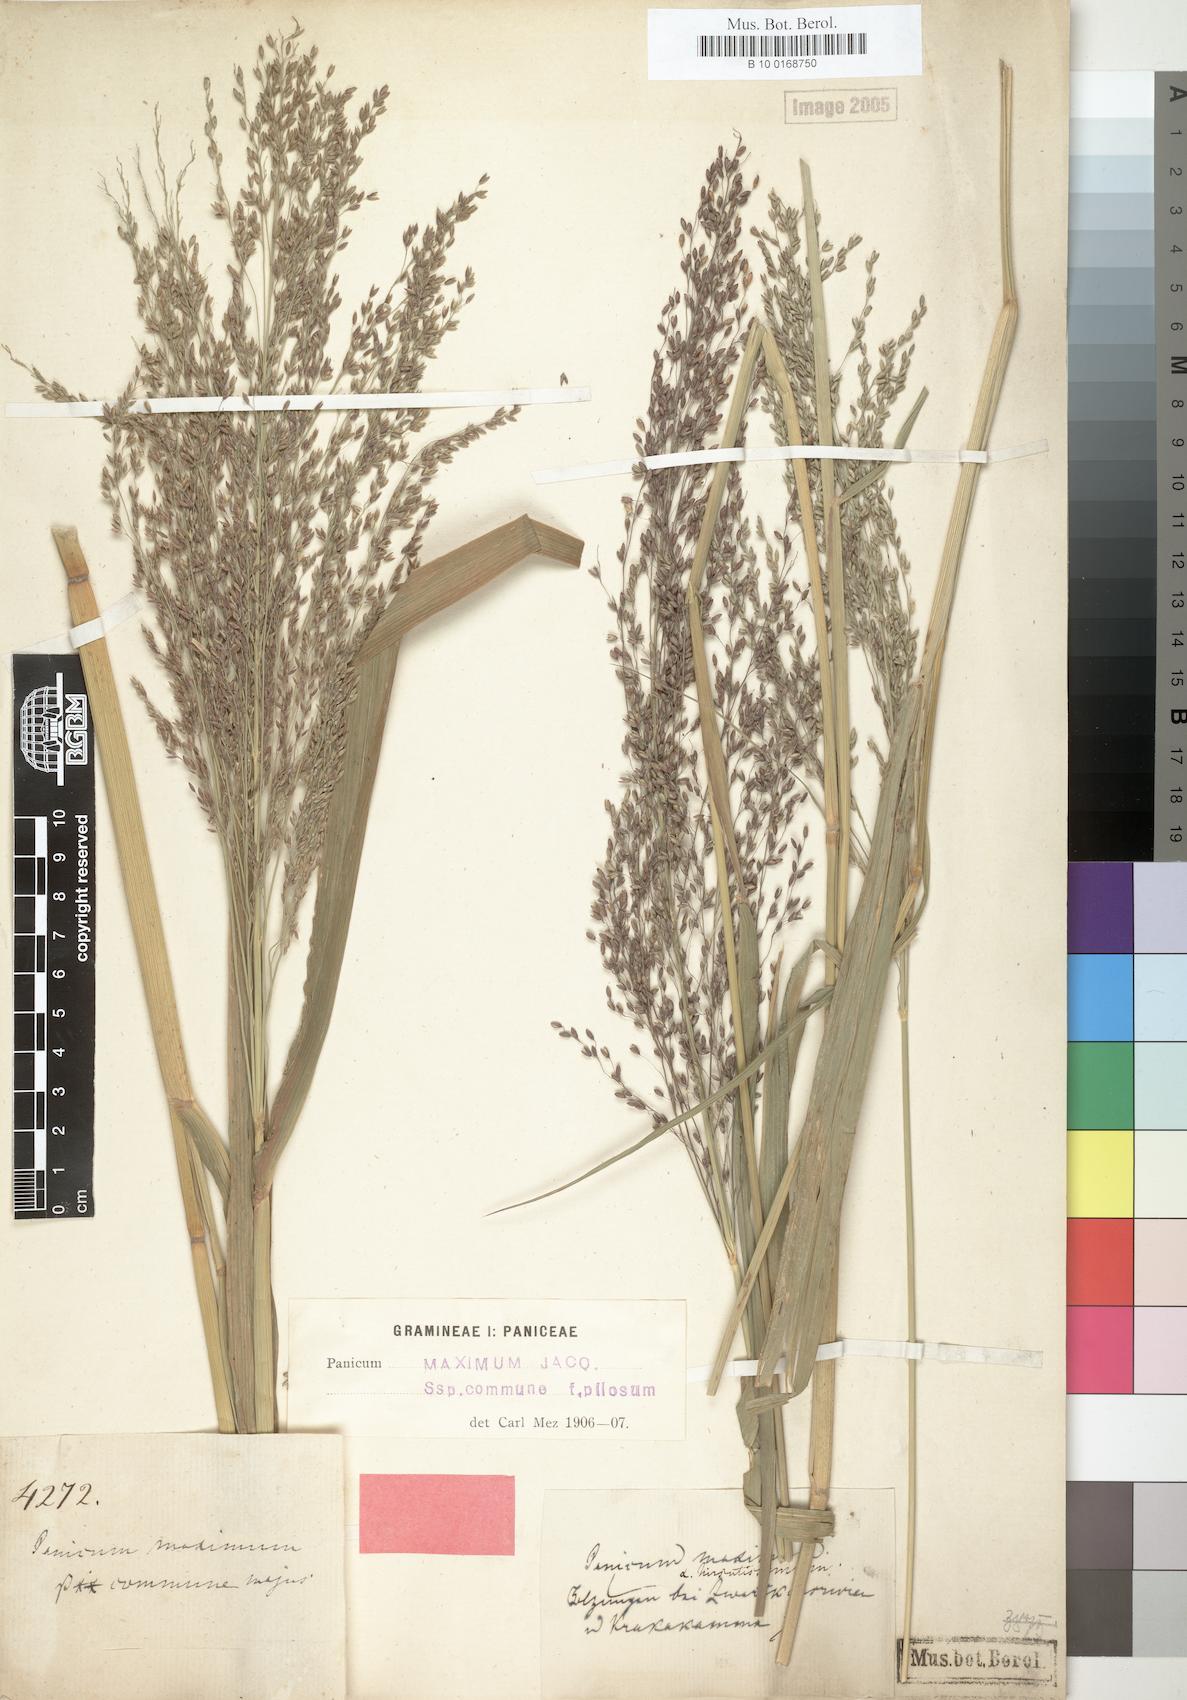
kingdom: Plantae
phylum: Tracheophyta
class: Liliopsida
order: Poales
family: Poaceae
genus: Megathyrsus
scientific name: Megathyrsus maximus
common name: Guineagrass
